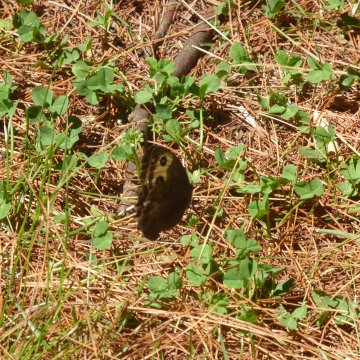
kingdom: Animalia
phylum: Arthropoda
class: Insecta
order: Lepidoptera
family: Nymphalidae
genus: Cercyonis
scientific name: Cercyonis pegala
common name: Common Wood-Nymph
